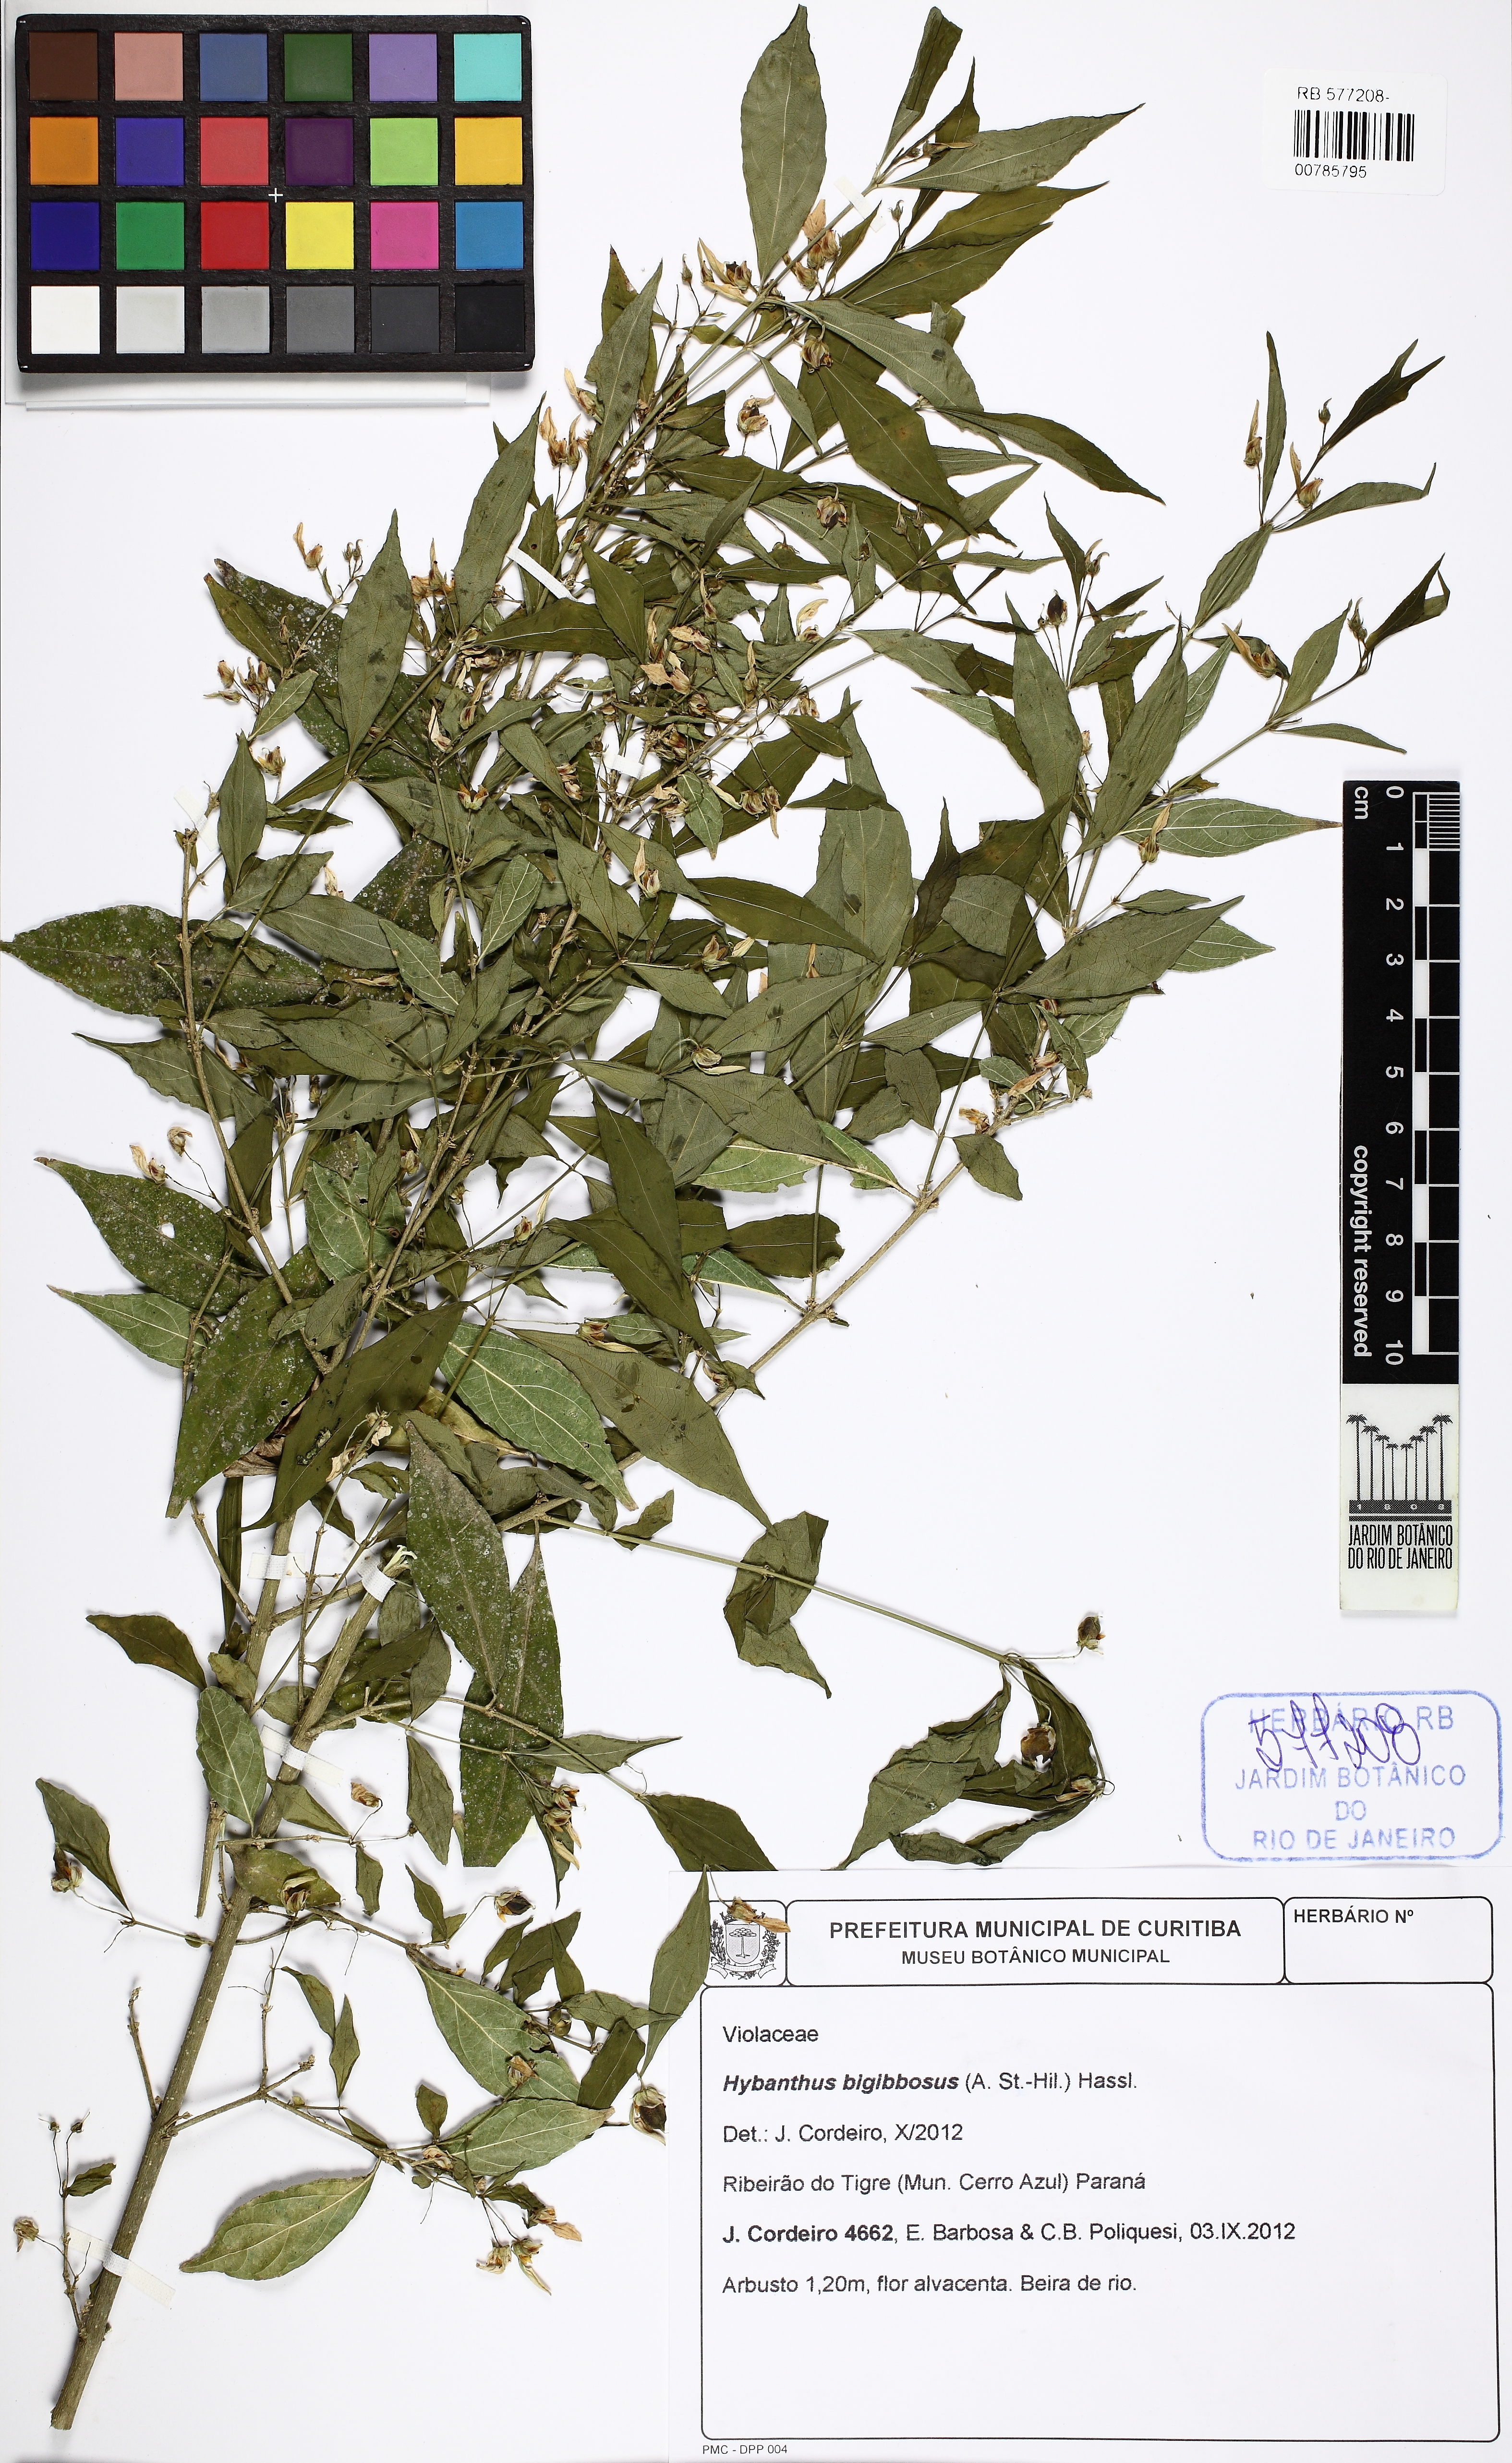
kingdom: Plantae
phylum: Tracheophyta
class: Magnoliopsida
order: Malpighiales
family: Violaceae
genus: Pombalia
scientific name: Pombalia bigibbosa
